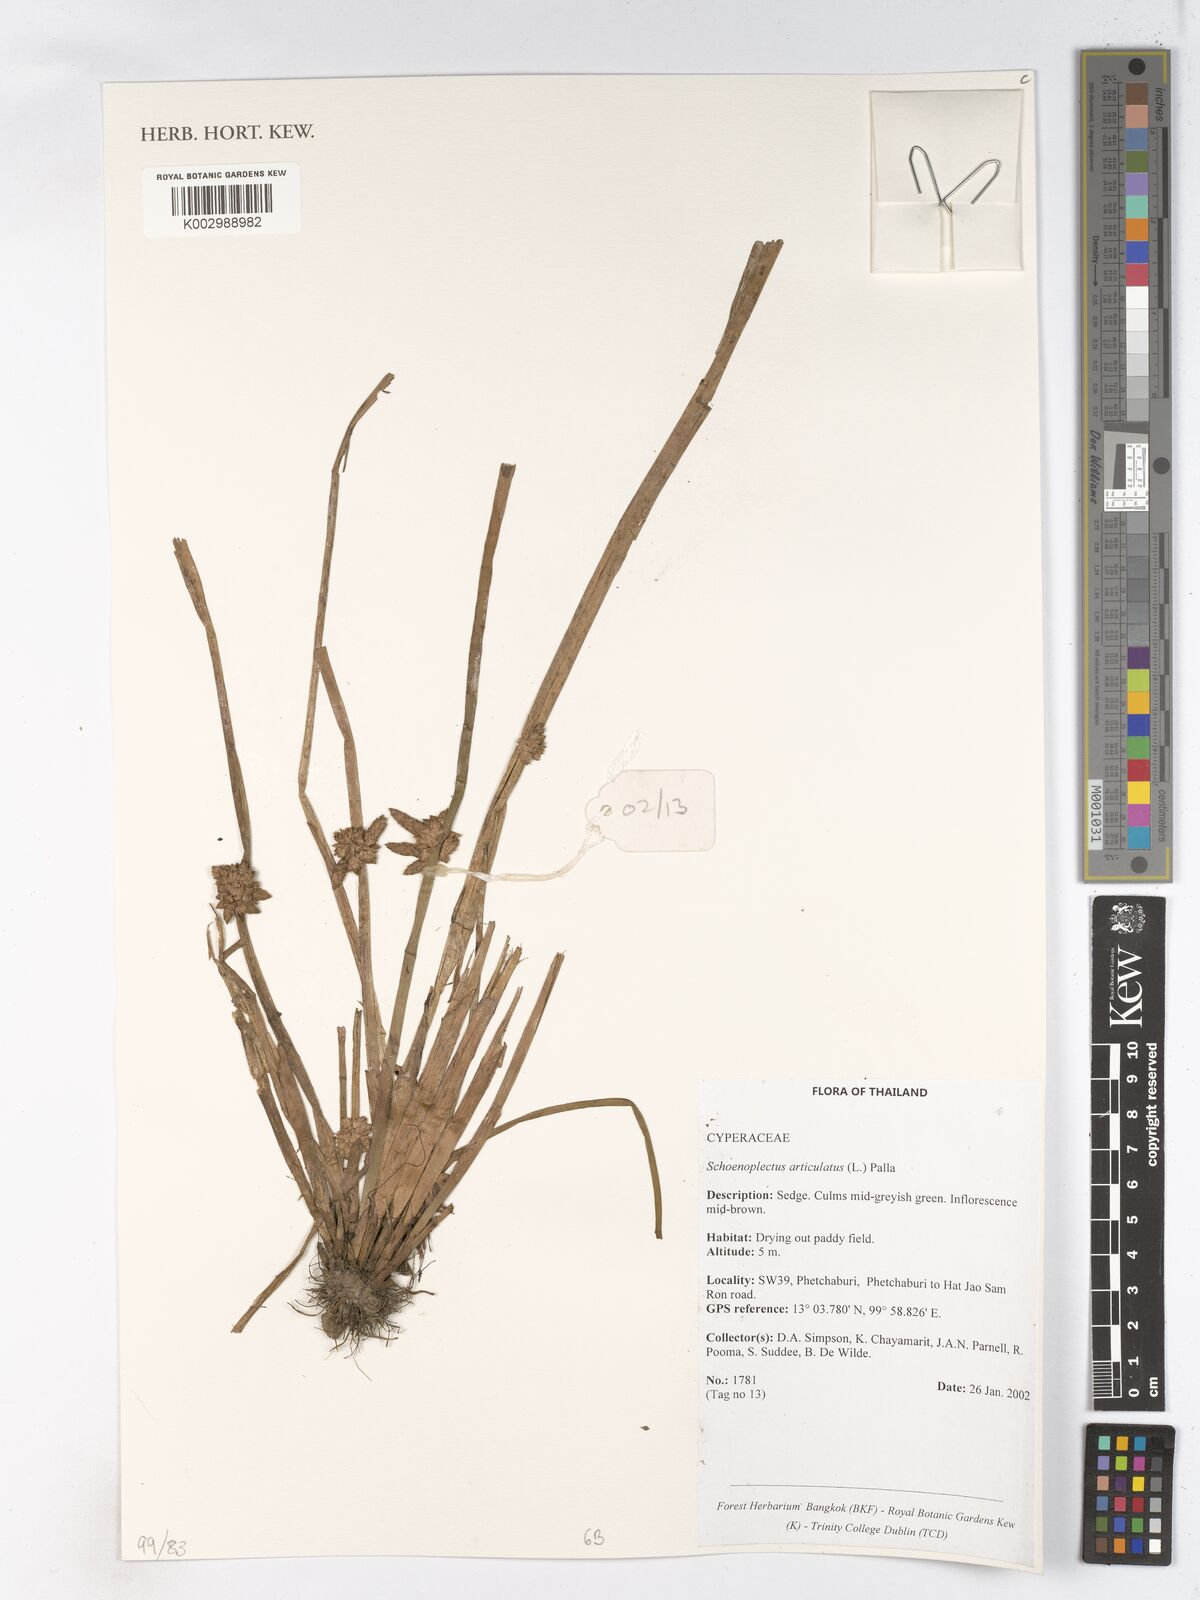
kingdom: Plantae
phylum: Tracheophyta
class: Liliopsida
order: Poales
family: Cyperaceae
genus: Schoenoplectiella
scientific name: Schoenoplectiella articulata
